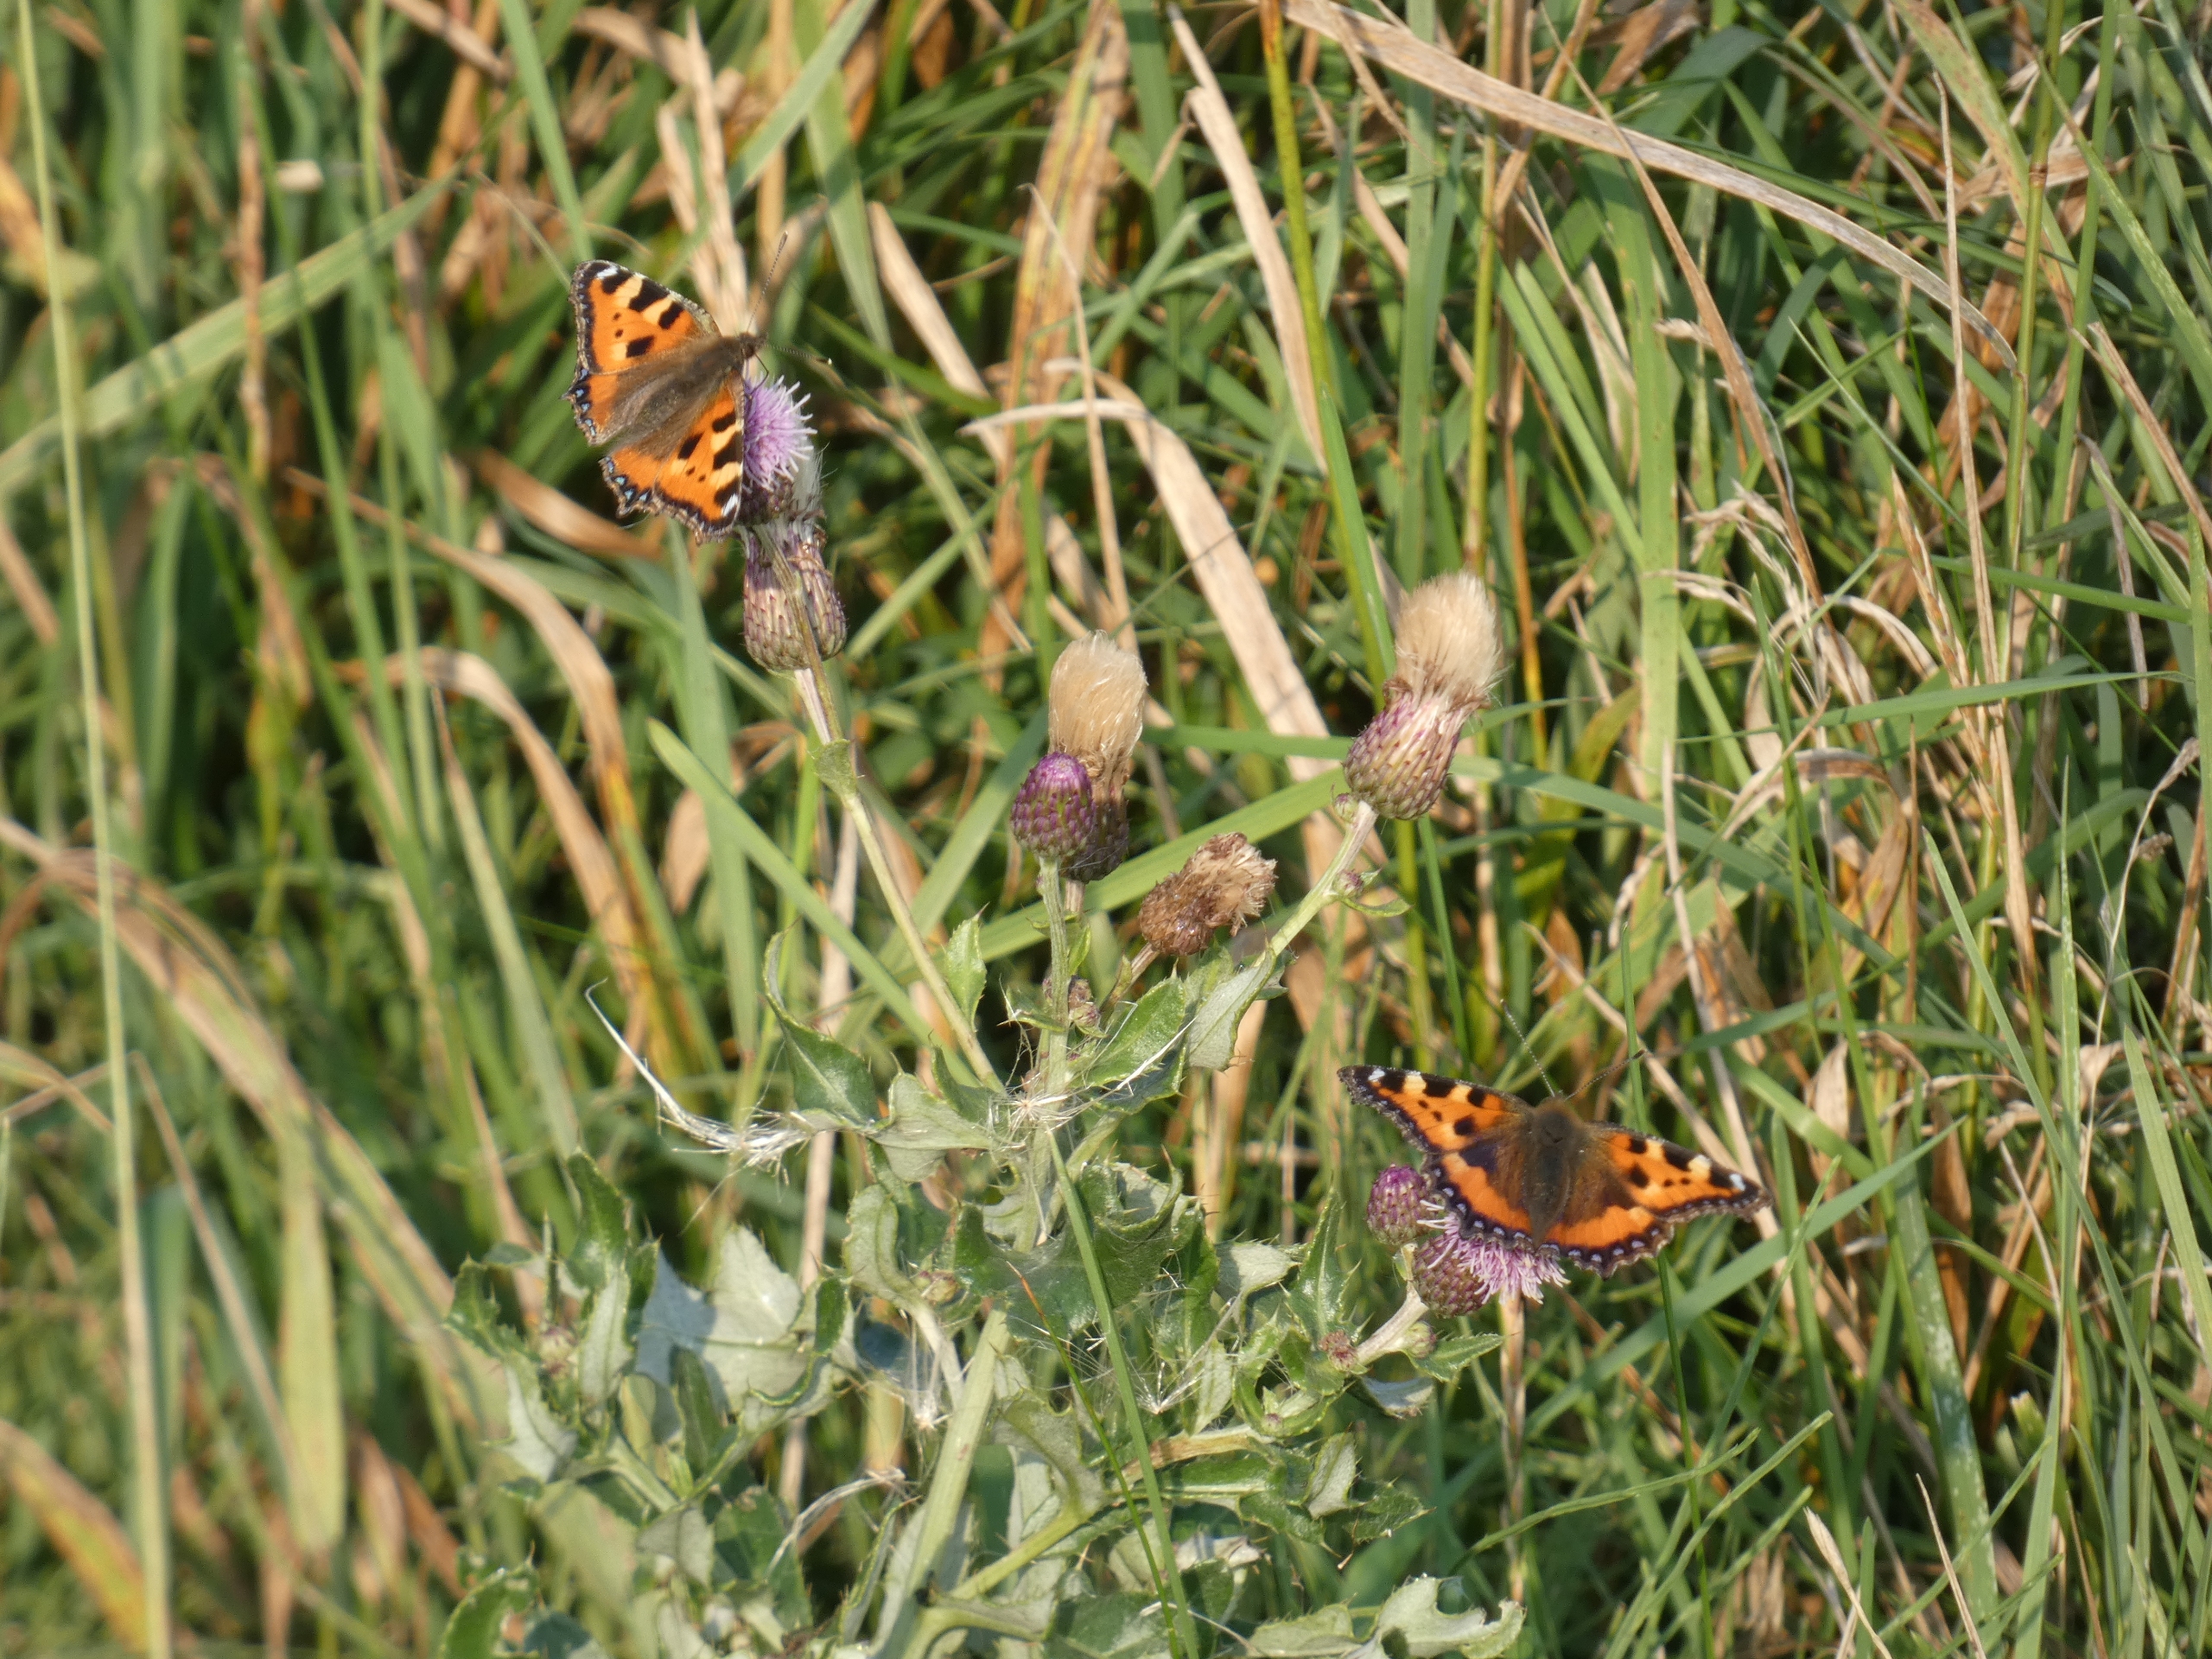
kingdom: Animalia
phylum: Arthropoda
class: Insecta
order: Lepidoptera
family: Nymphalidae
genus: Aglais
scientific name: Aglais urticae
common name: Nældens takvinge
